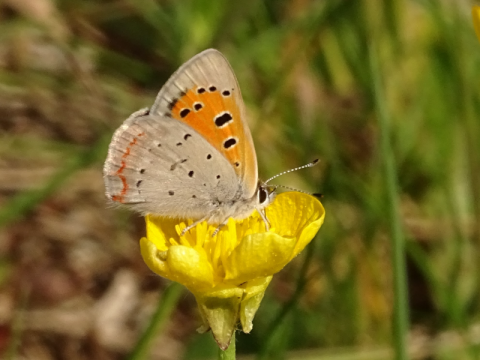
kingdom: Animalia
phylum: Arthropoda
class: Insecta
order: Lepidoptera
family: Lycaenidae
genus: Lycaena
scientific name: Lycaena phlaeas
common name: American Copper
